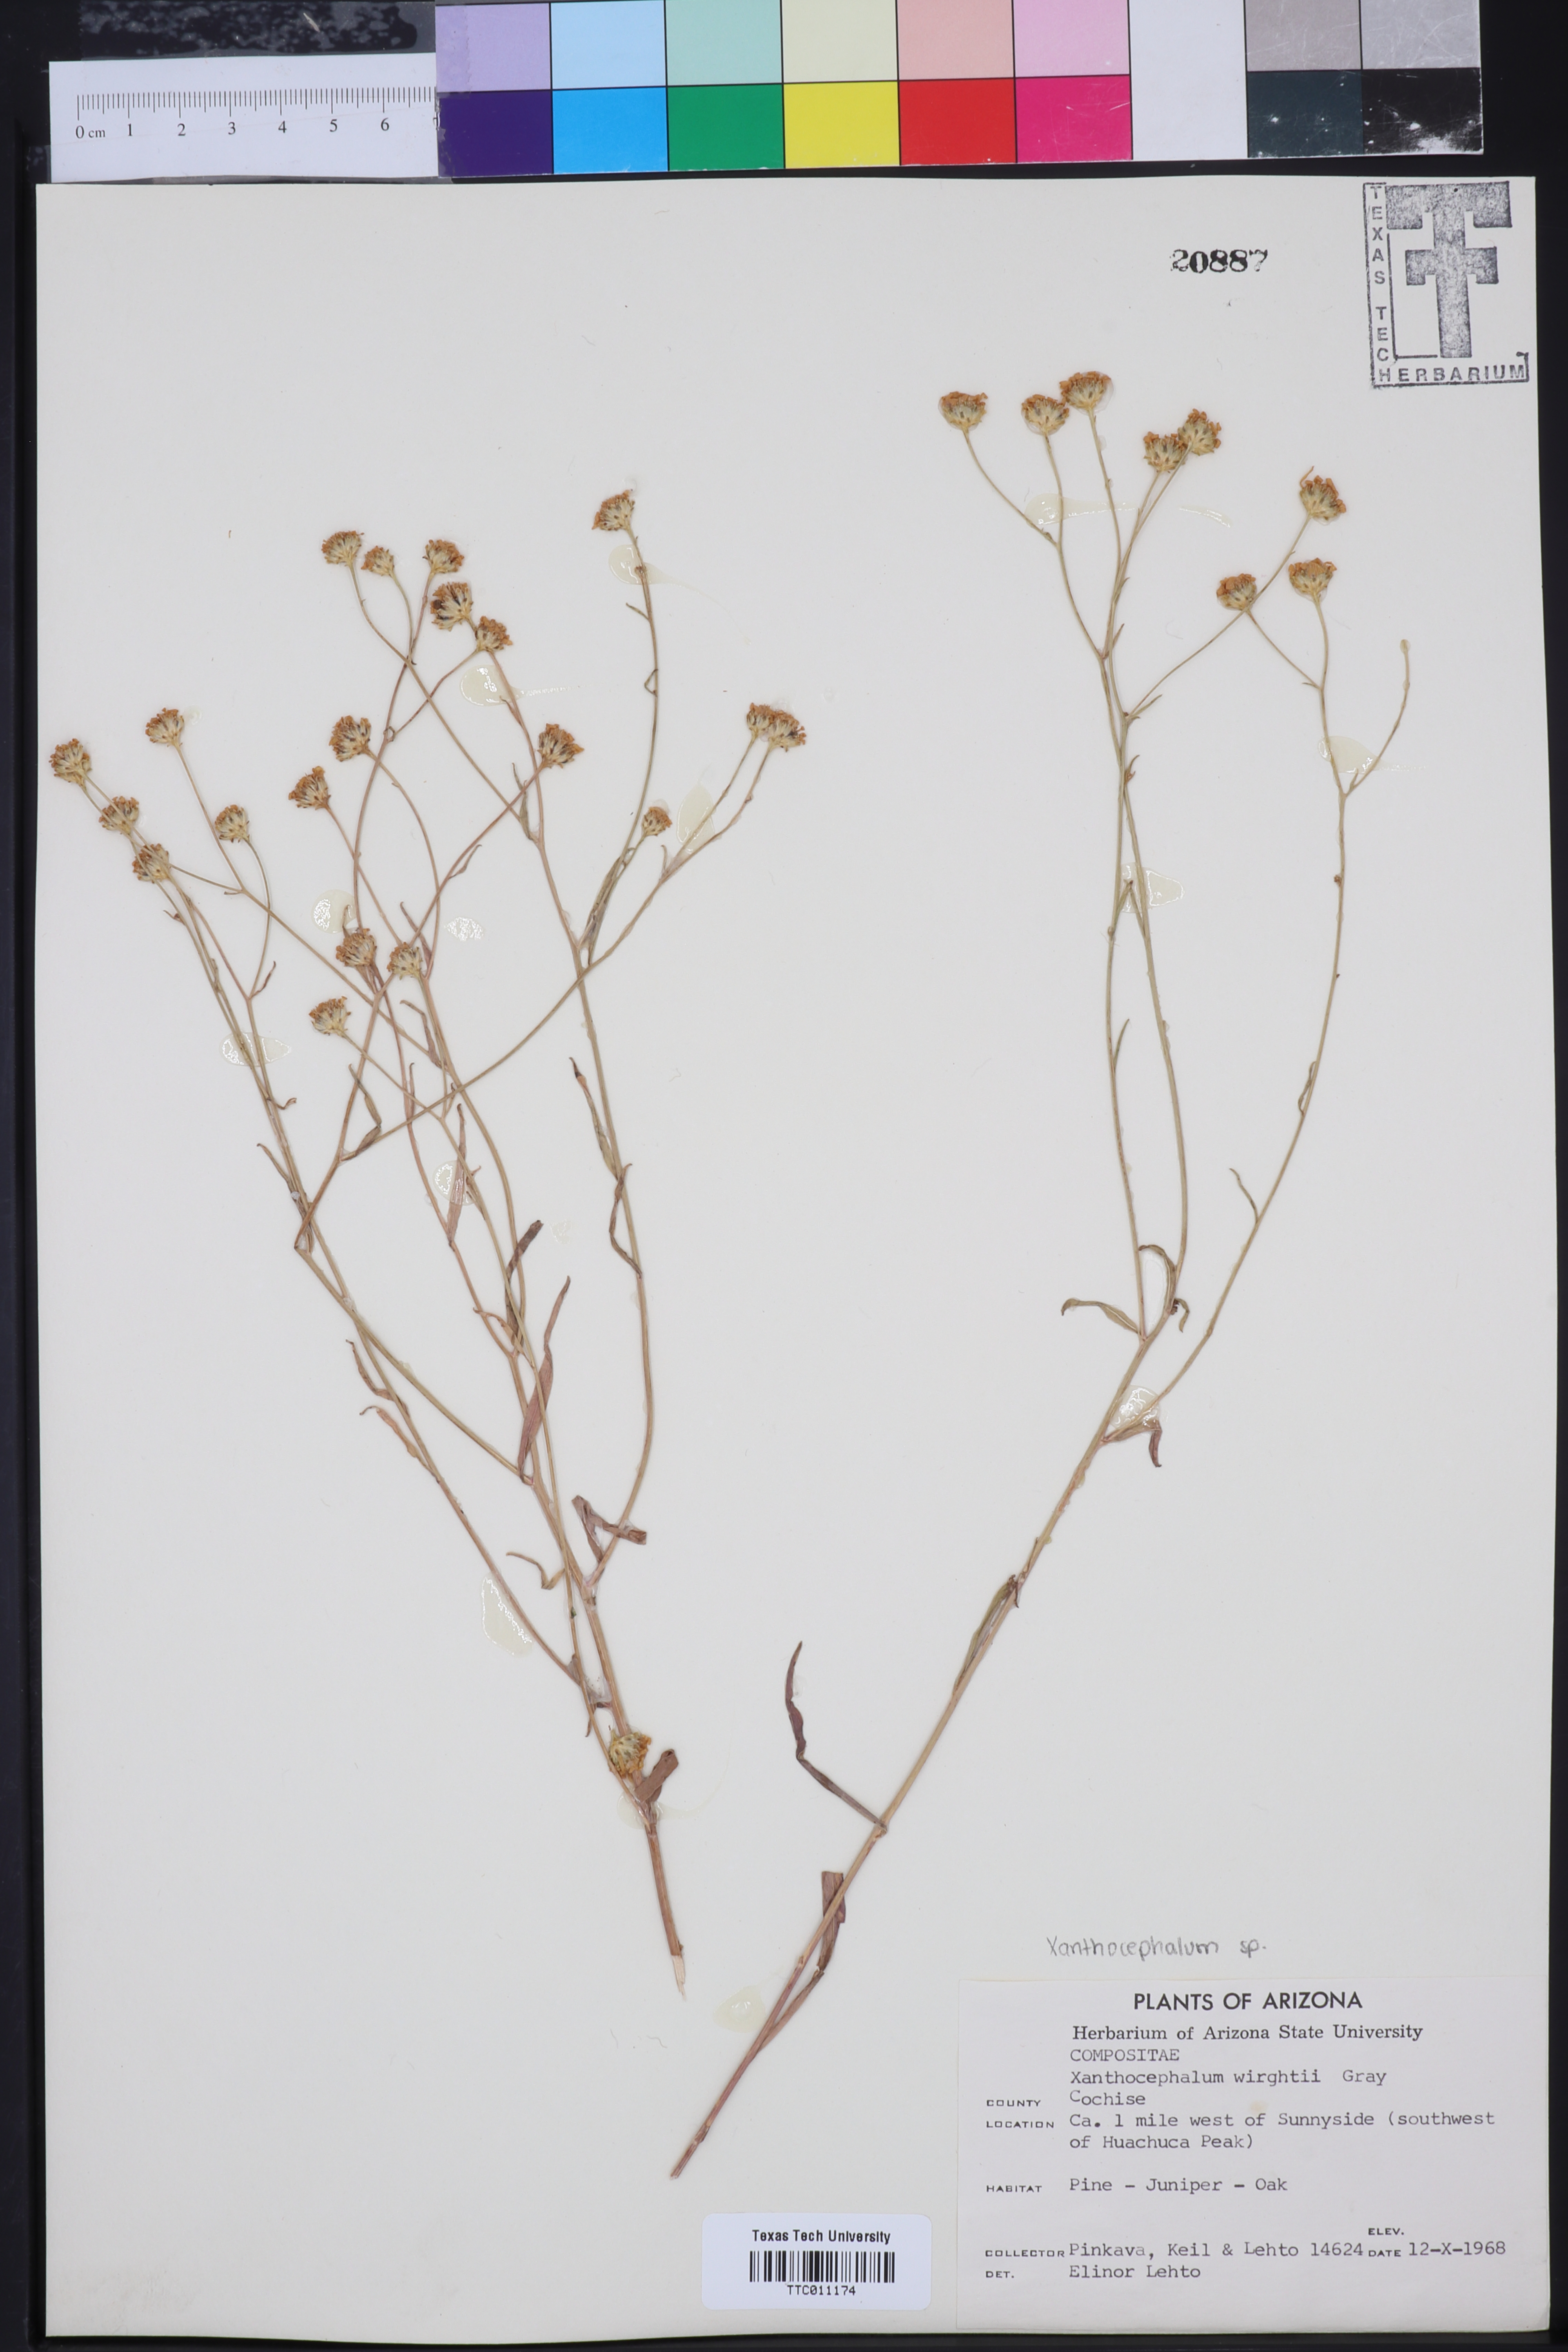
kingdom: Plantae
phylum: Tracheophyta
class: Magnoliopsida
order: Asterales
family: Asteraceae
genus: Gutierrezia
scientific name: Gutierrezia wrightii
